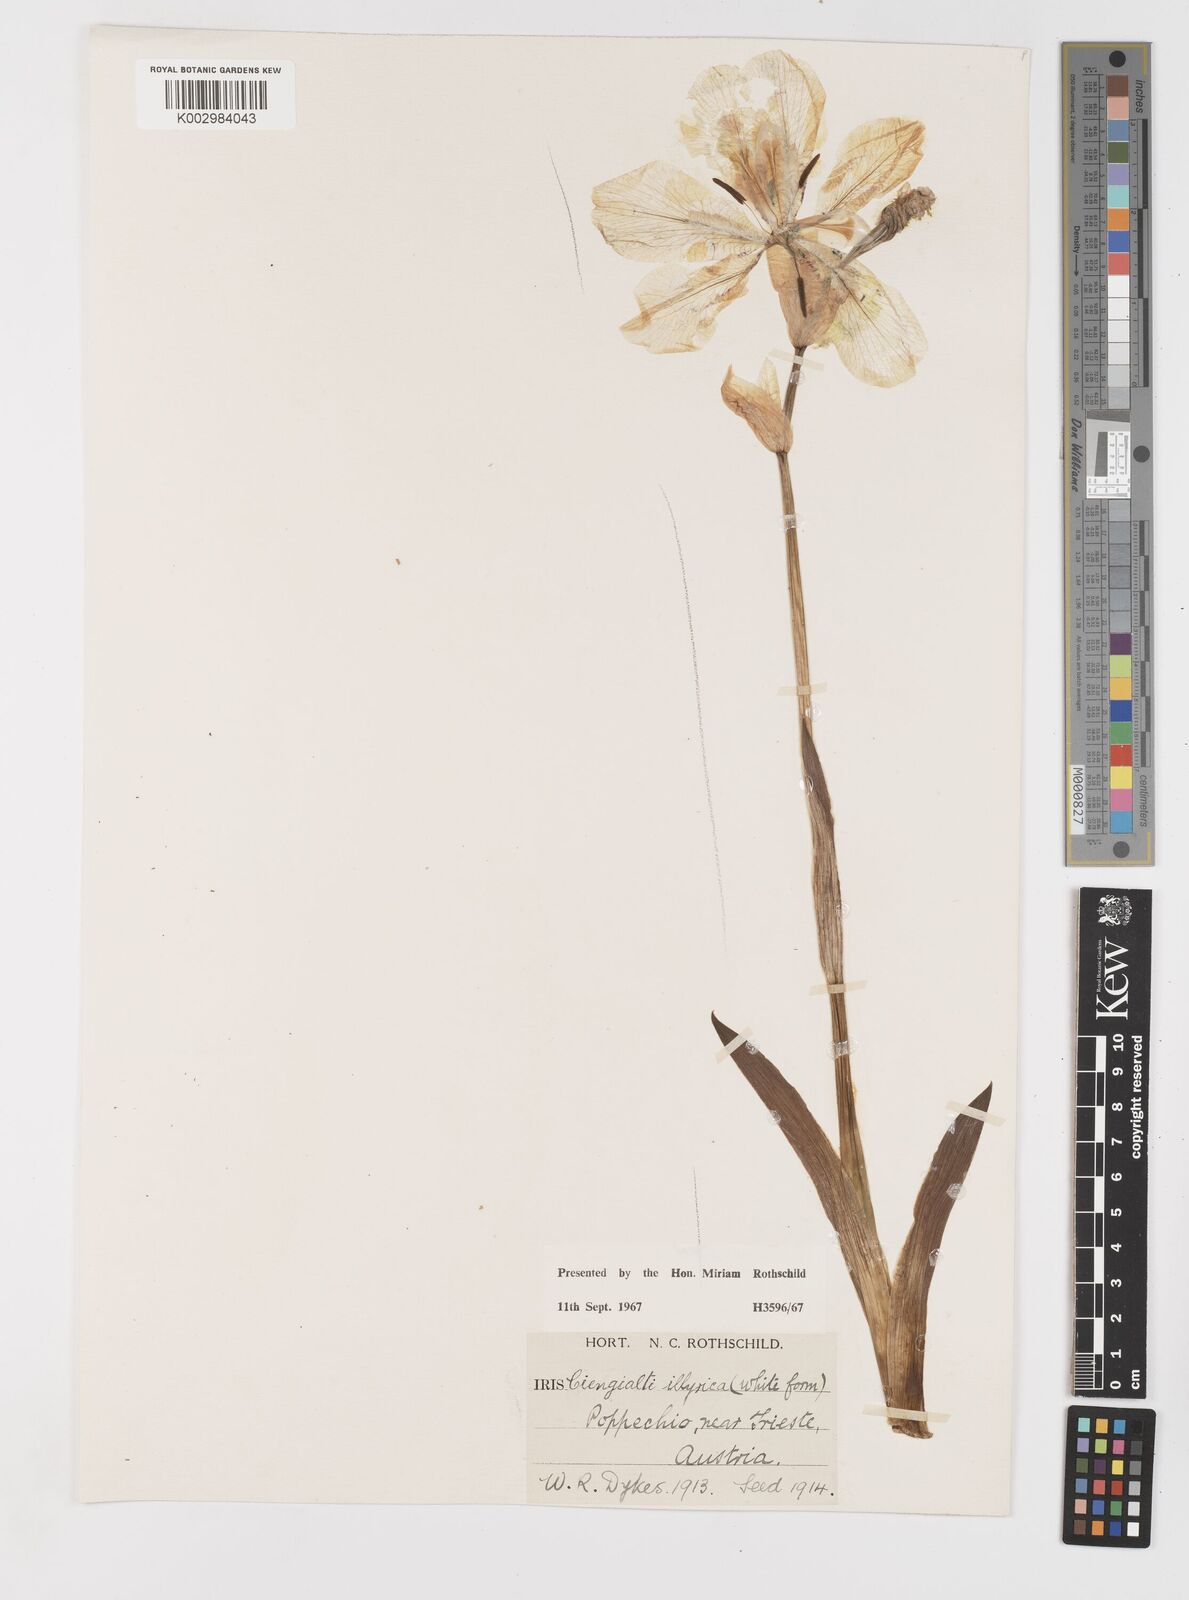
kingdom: Plantae
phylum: Tracheophyta
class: Liliopsida
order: Asparagales
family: Iridaceae
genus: Iris
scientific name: Iris pallida
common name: Sweet iris
